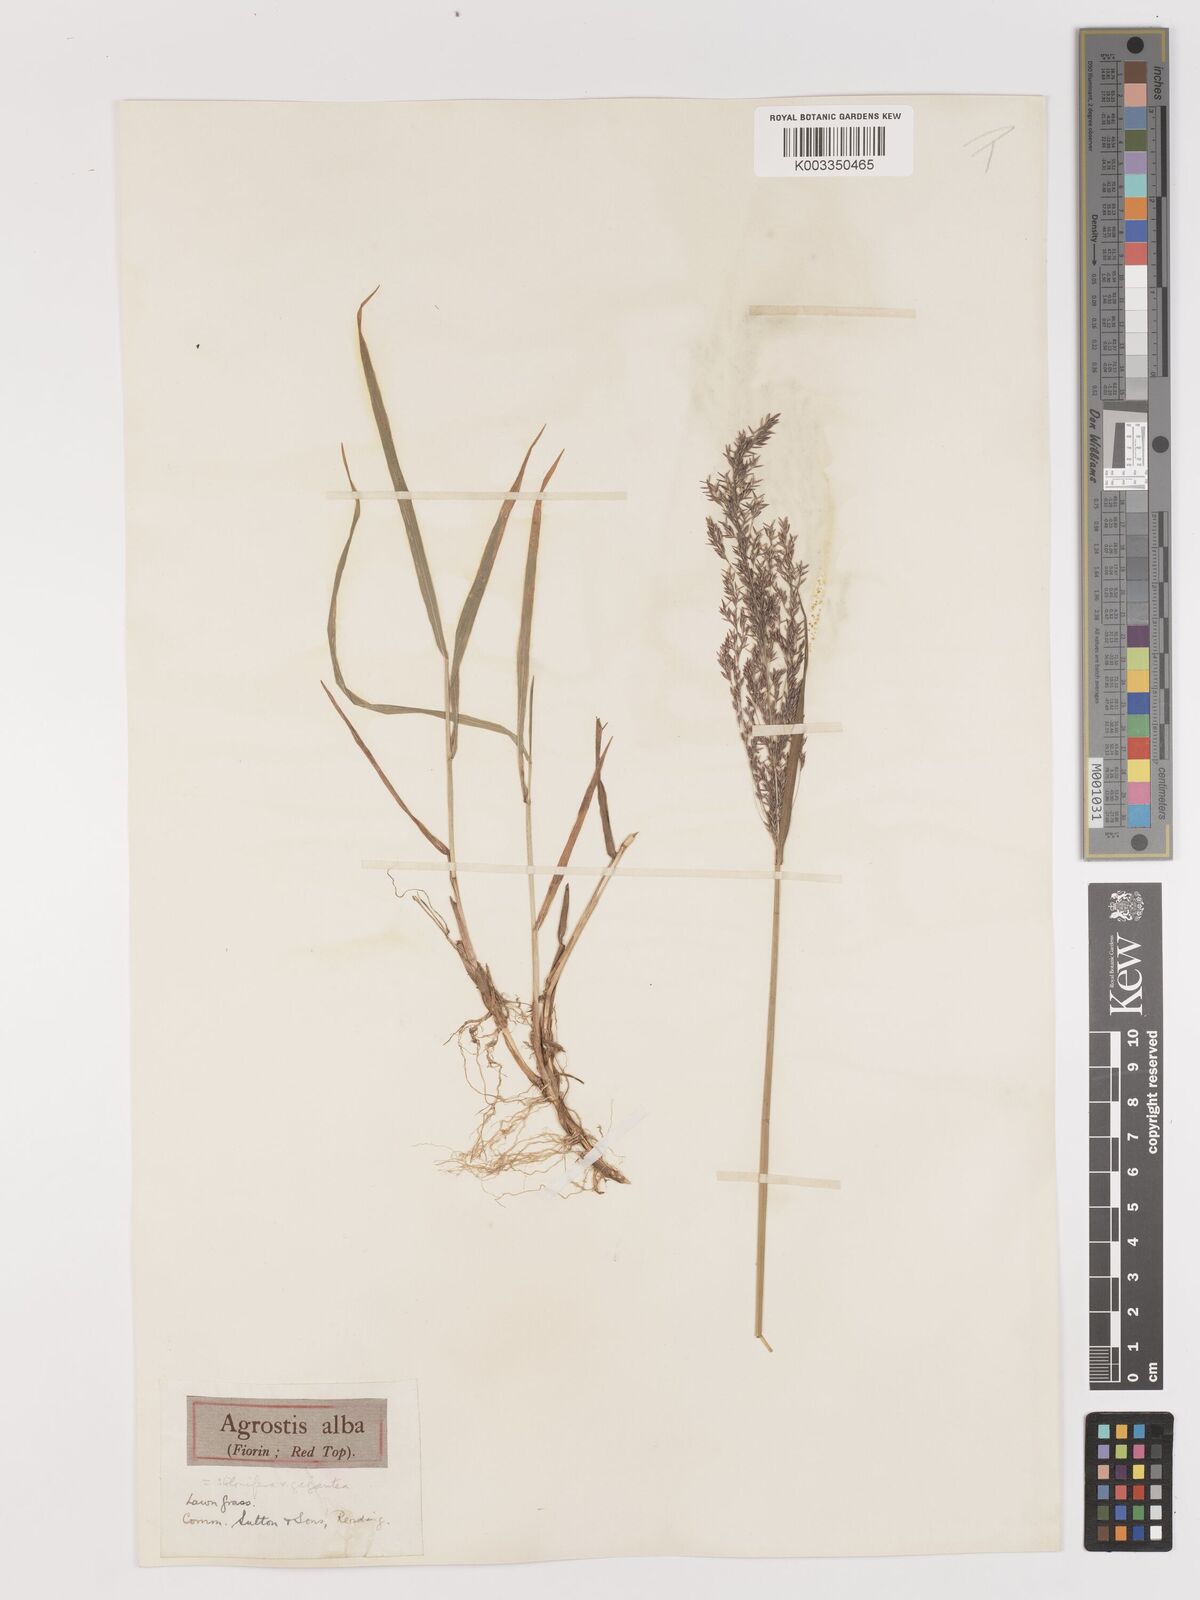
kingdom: Plantae
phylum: Tracheophyta
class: Liliopsida
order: Poales
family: Poaceae
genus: Agrostis
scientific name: Agrostis gigantea
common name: Black bent
